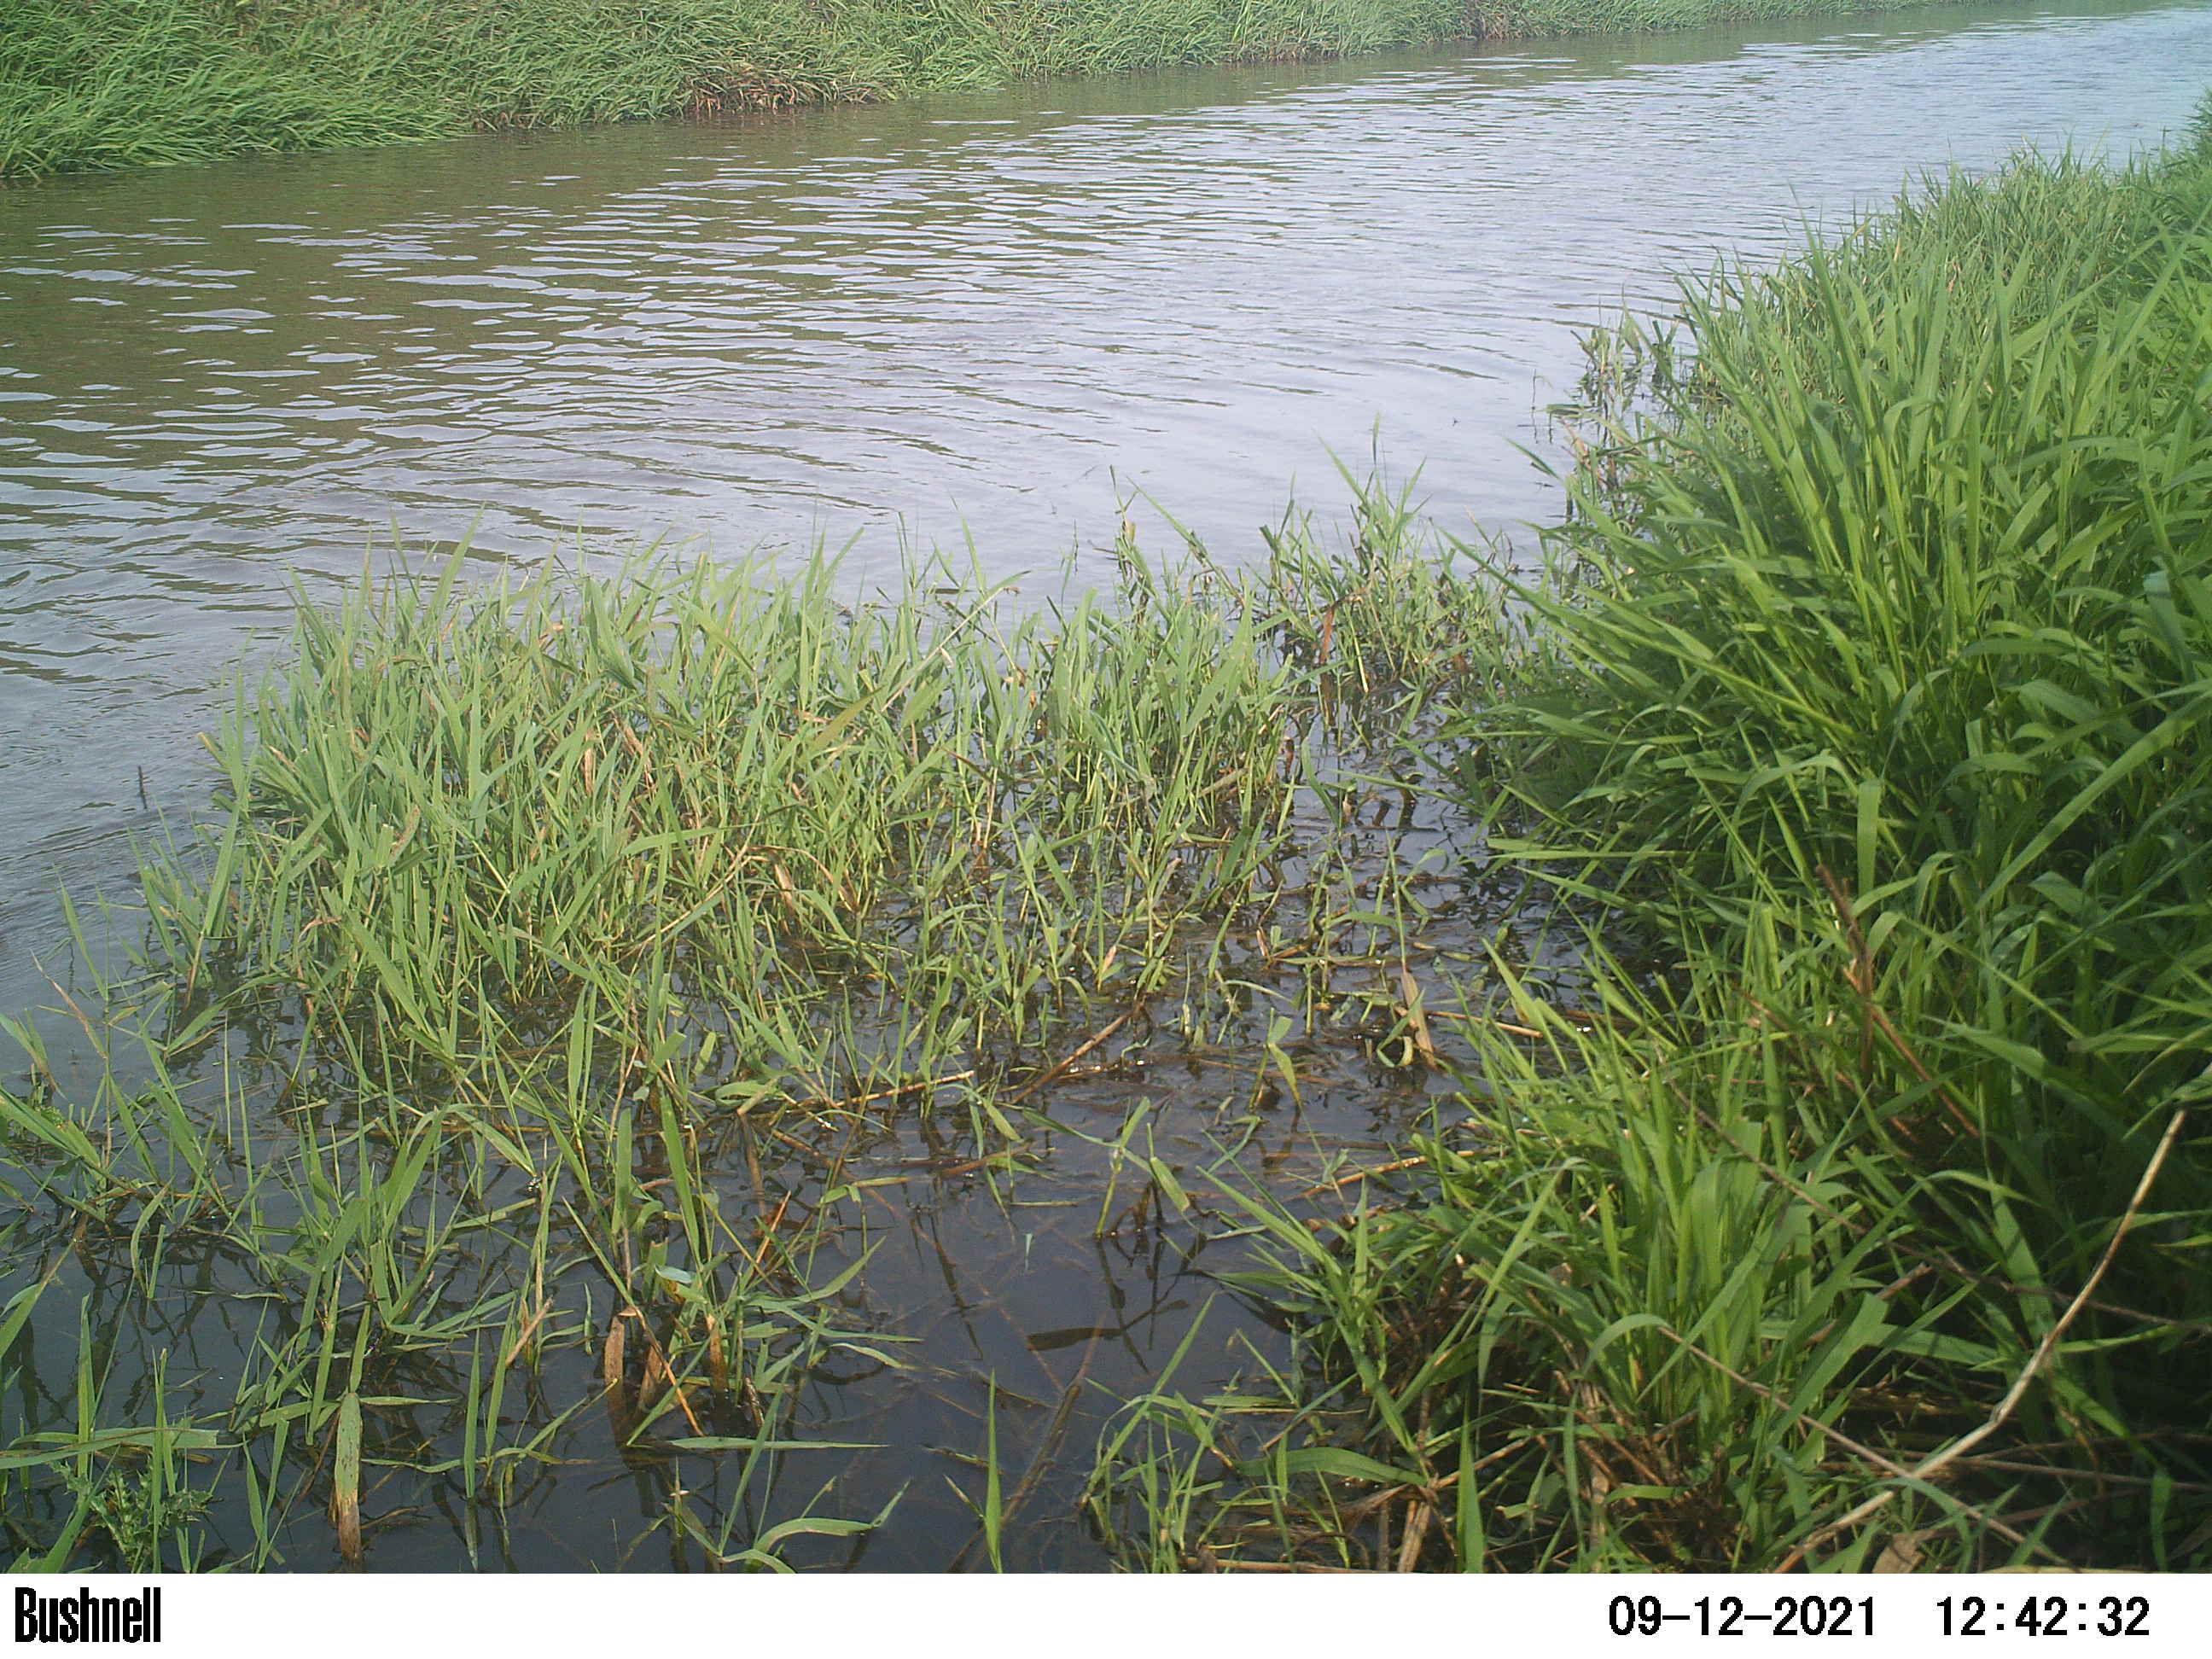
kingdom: Animalia
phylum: Chordata
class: Aves
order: Anseriformes
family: Anatidae
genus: Anas
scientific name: Anas platyrhynchos
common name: Mallard
